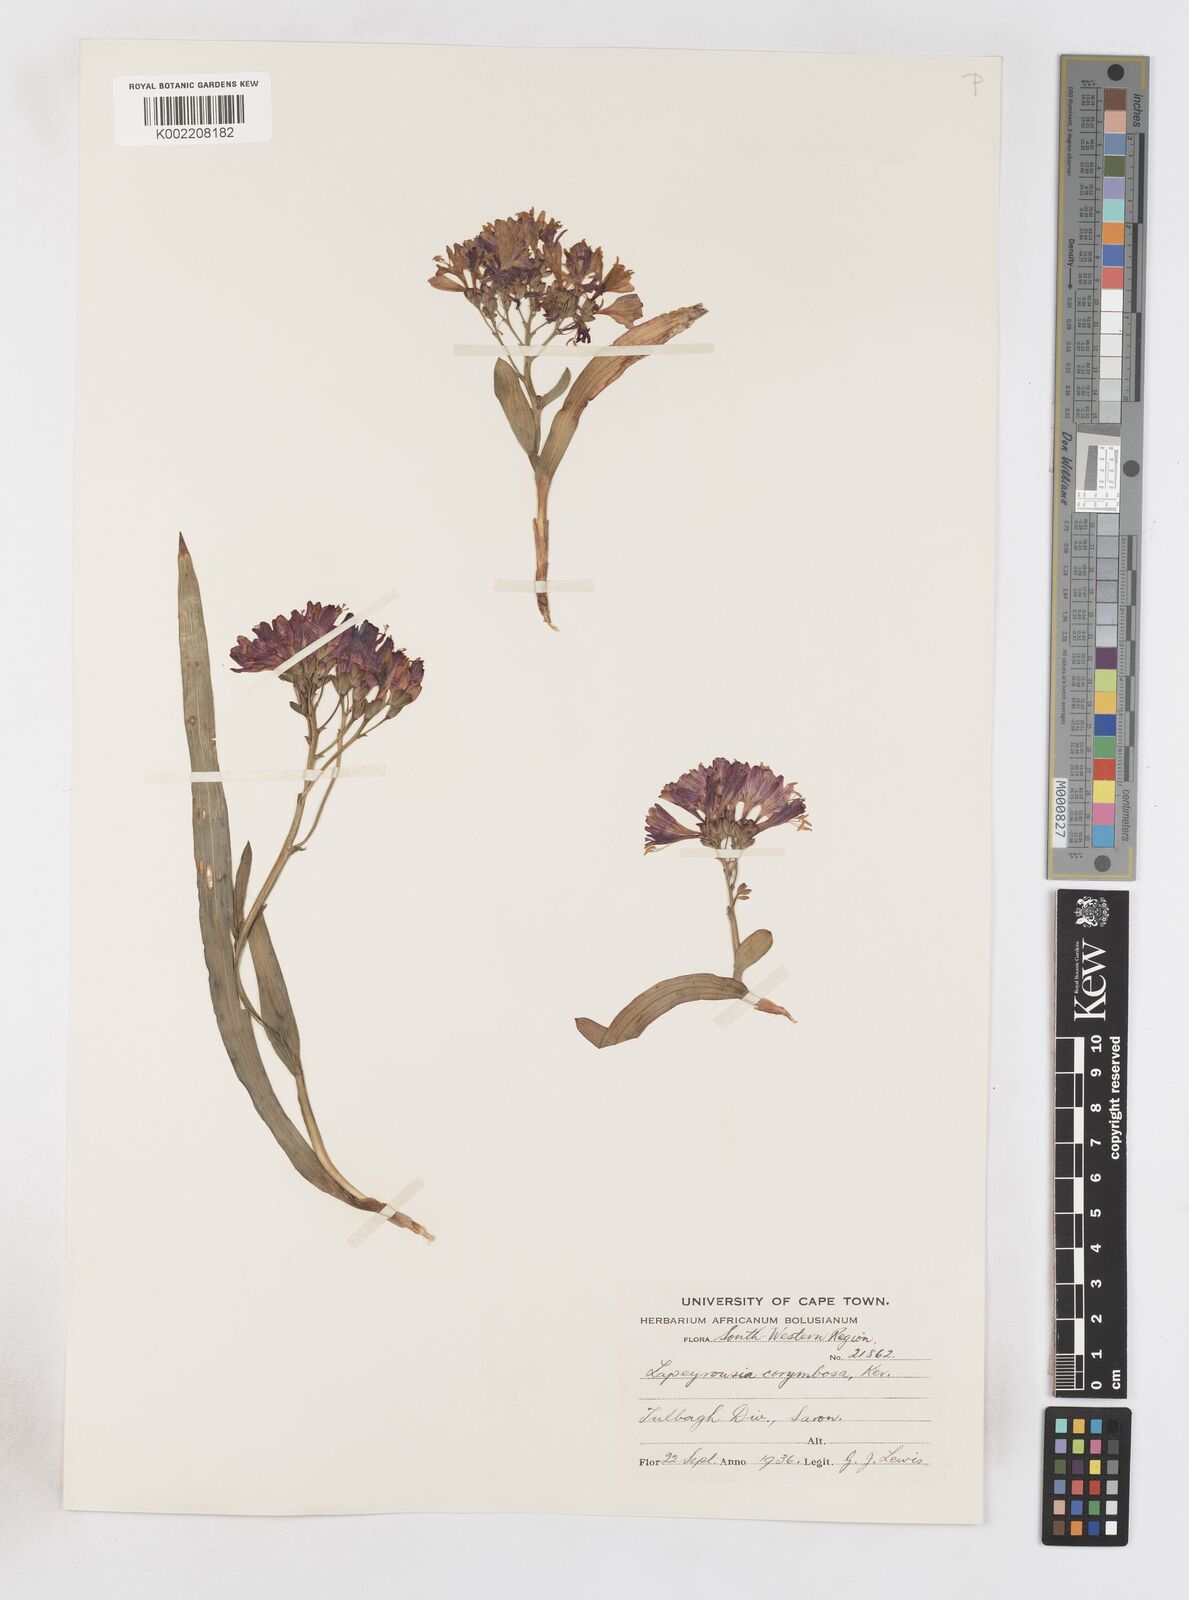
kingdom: Plantae
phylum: Tracheophyta
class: Liliopsida
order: Asparagales
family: Iridaceae
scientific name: Iridaceae
